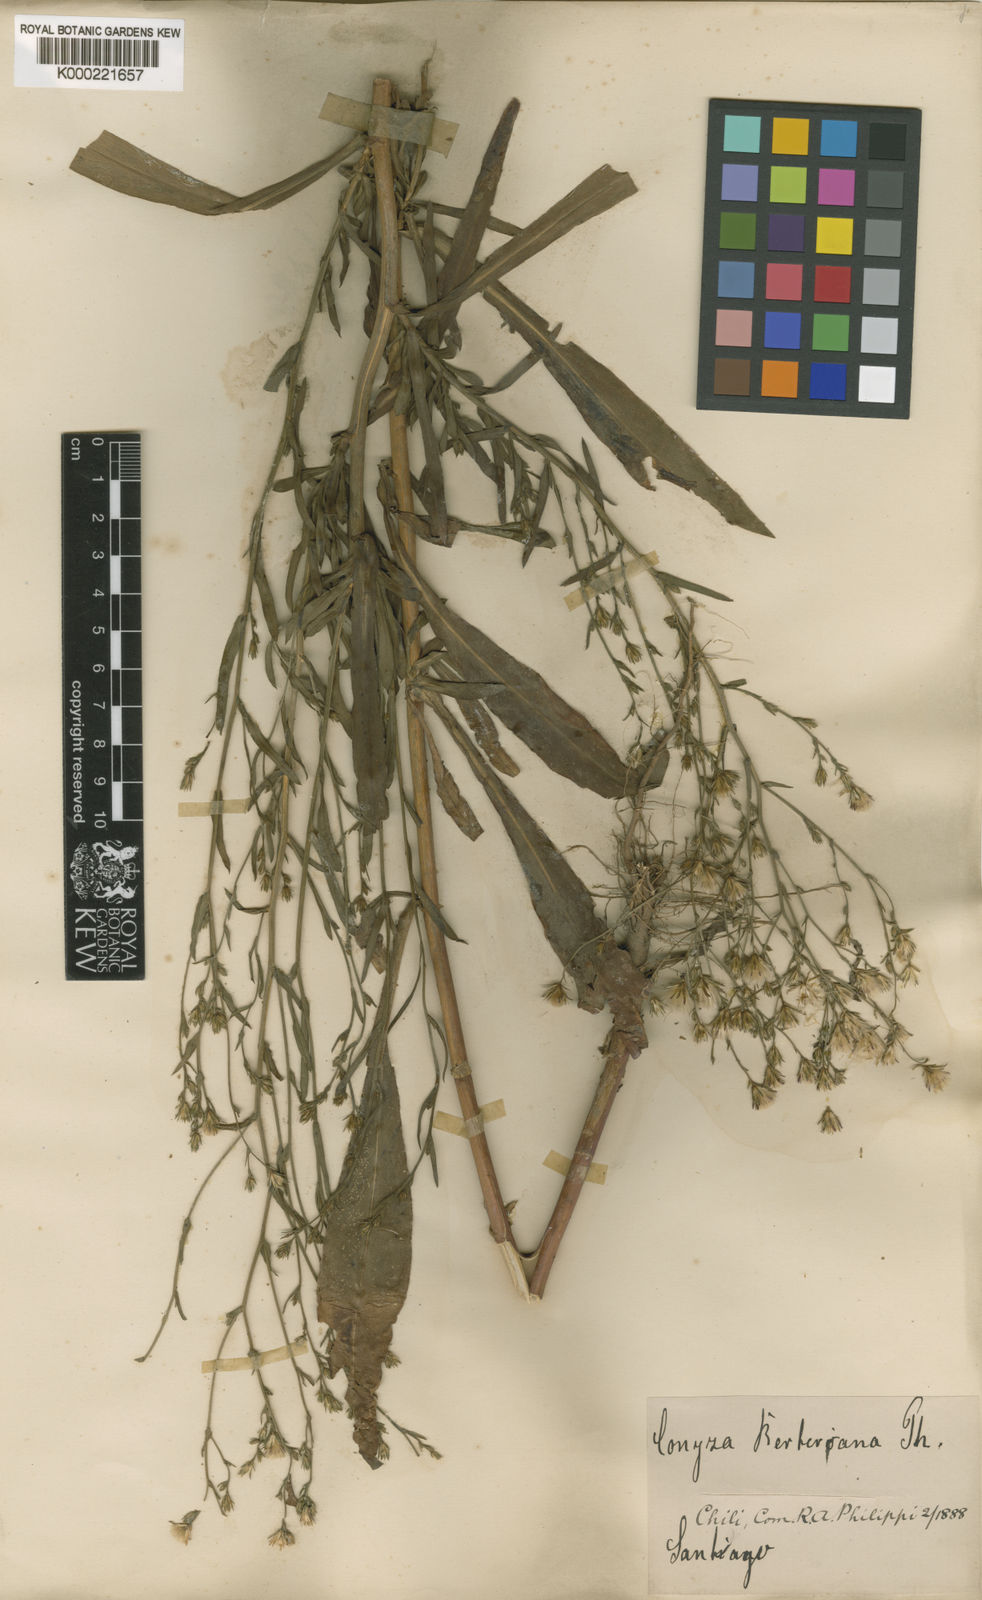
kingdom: Plantae
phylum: Tracheophyta
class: Magnoliopsida
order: Asterales
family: Asteraceae
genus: Symphyotrichum
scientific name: Symphyotrichum squamatum
